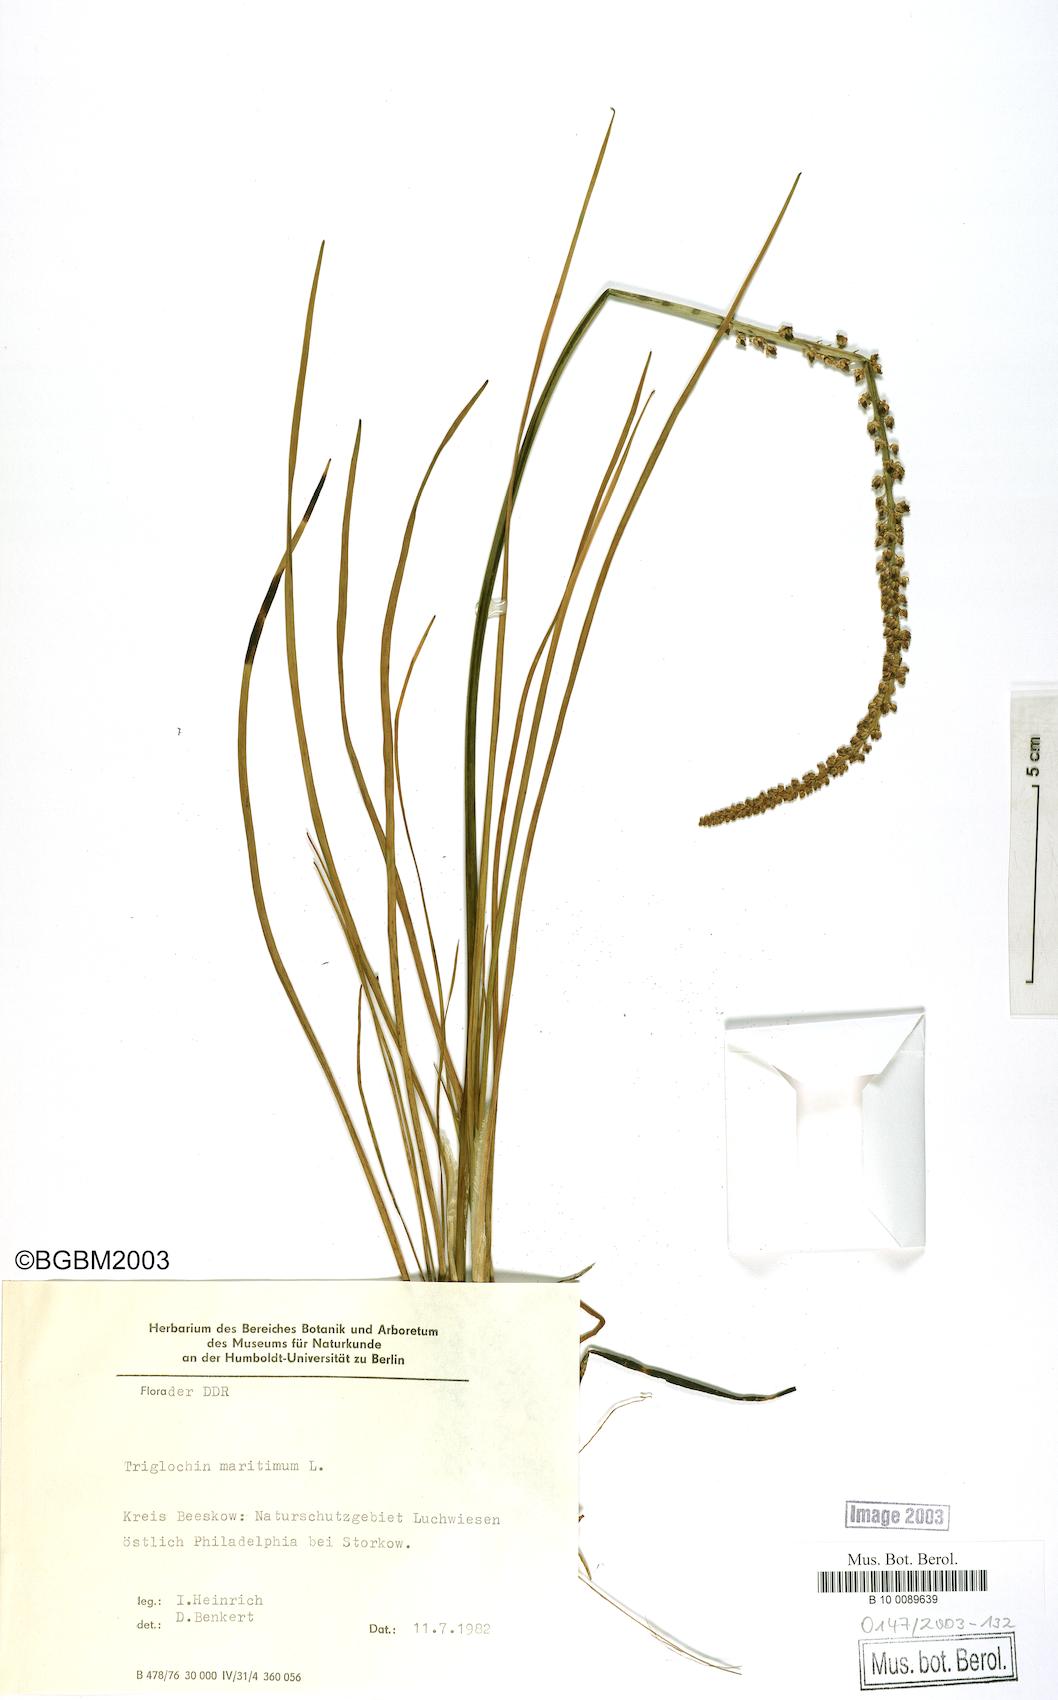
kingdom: Plantae
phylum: Tracheophyta
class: Liliopsida
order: Alismatales
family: Juncaginaceae
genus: Triglochin
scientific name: Triglochin maritima
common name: Sea arrowgrass
